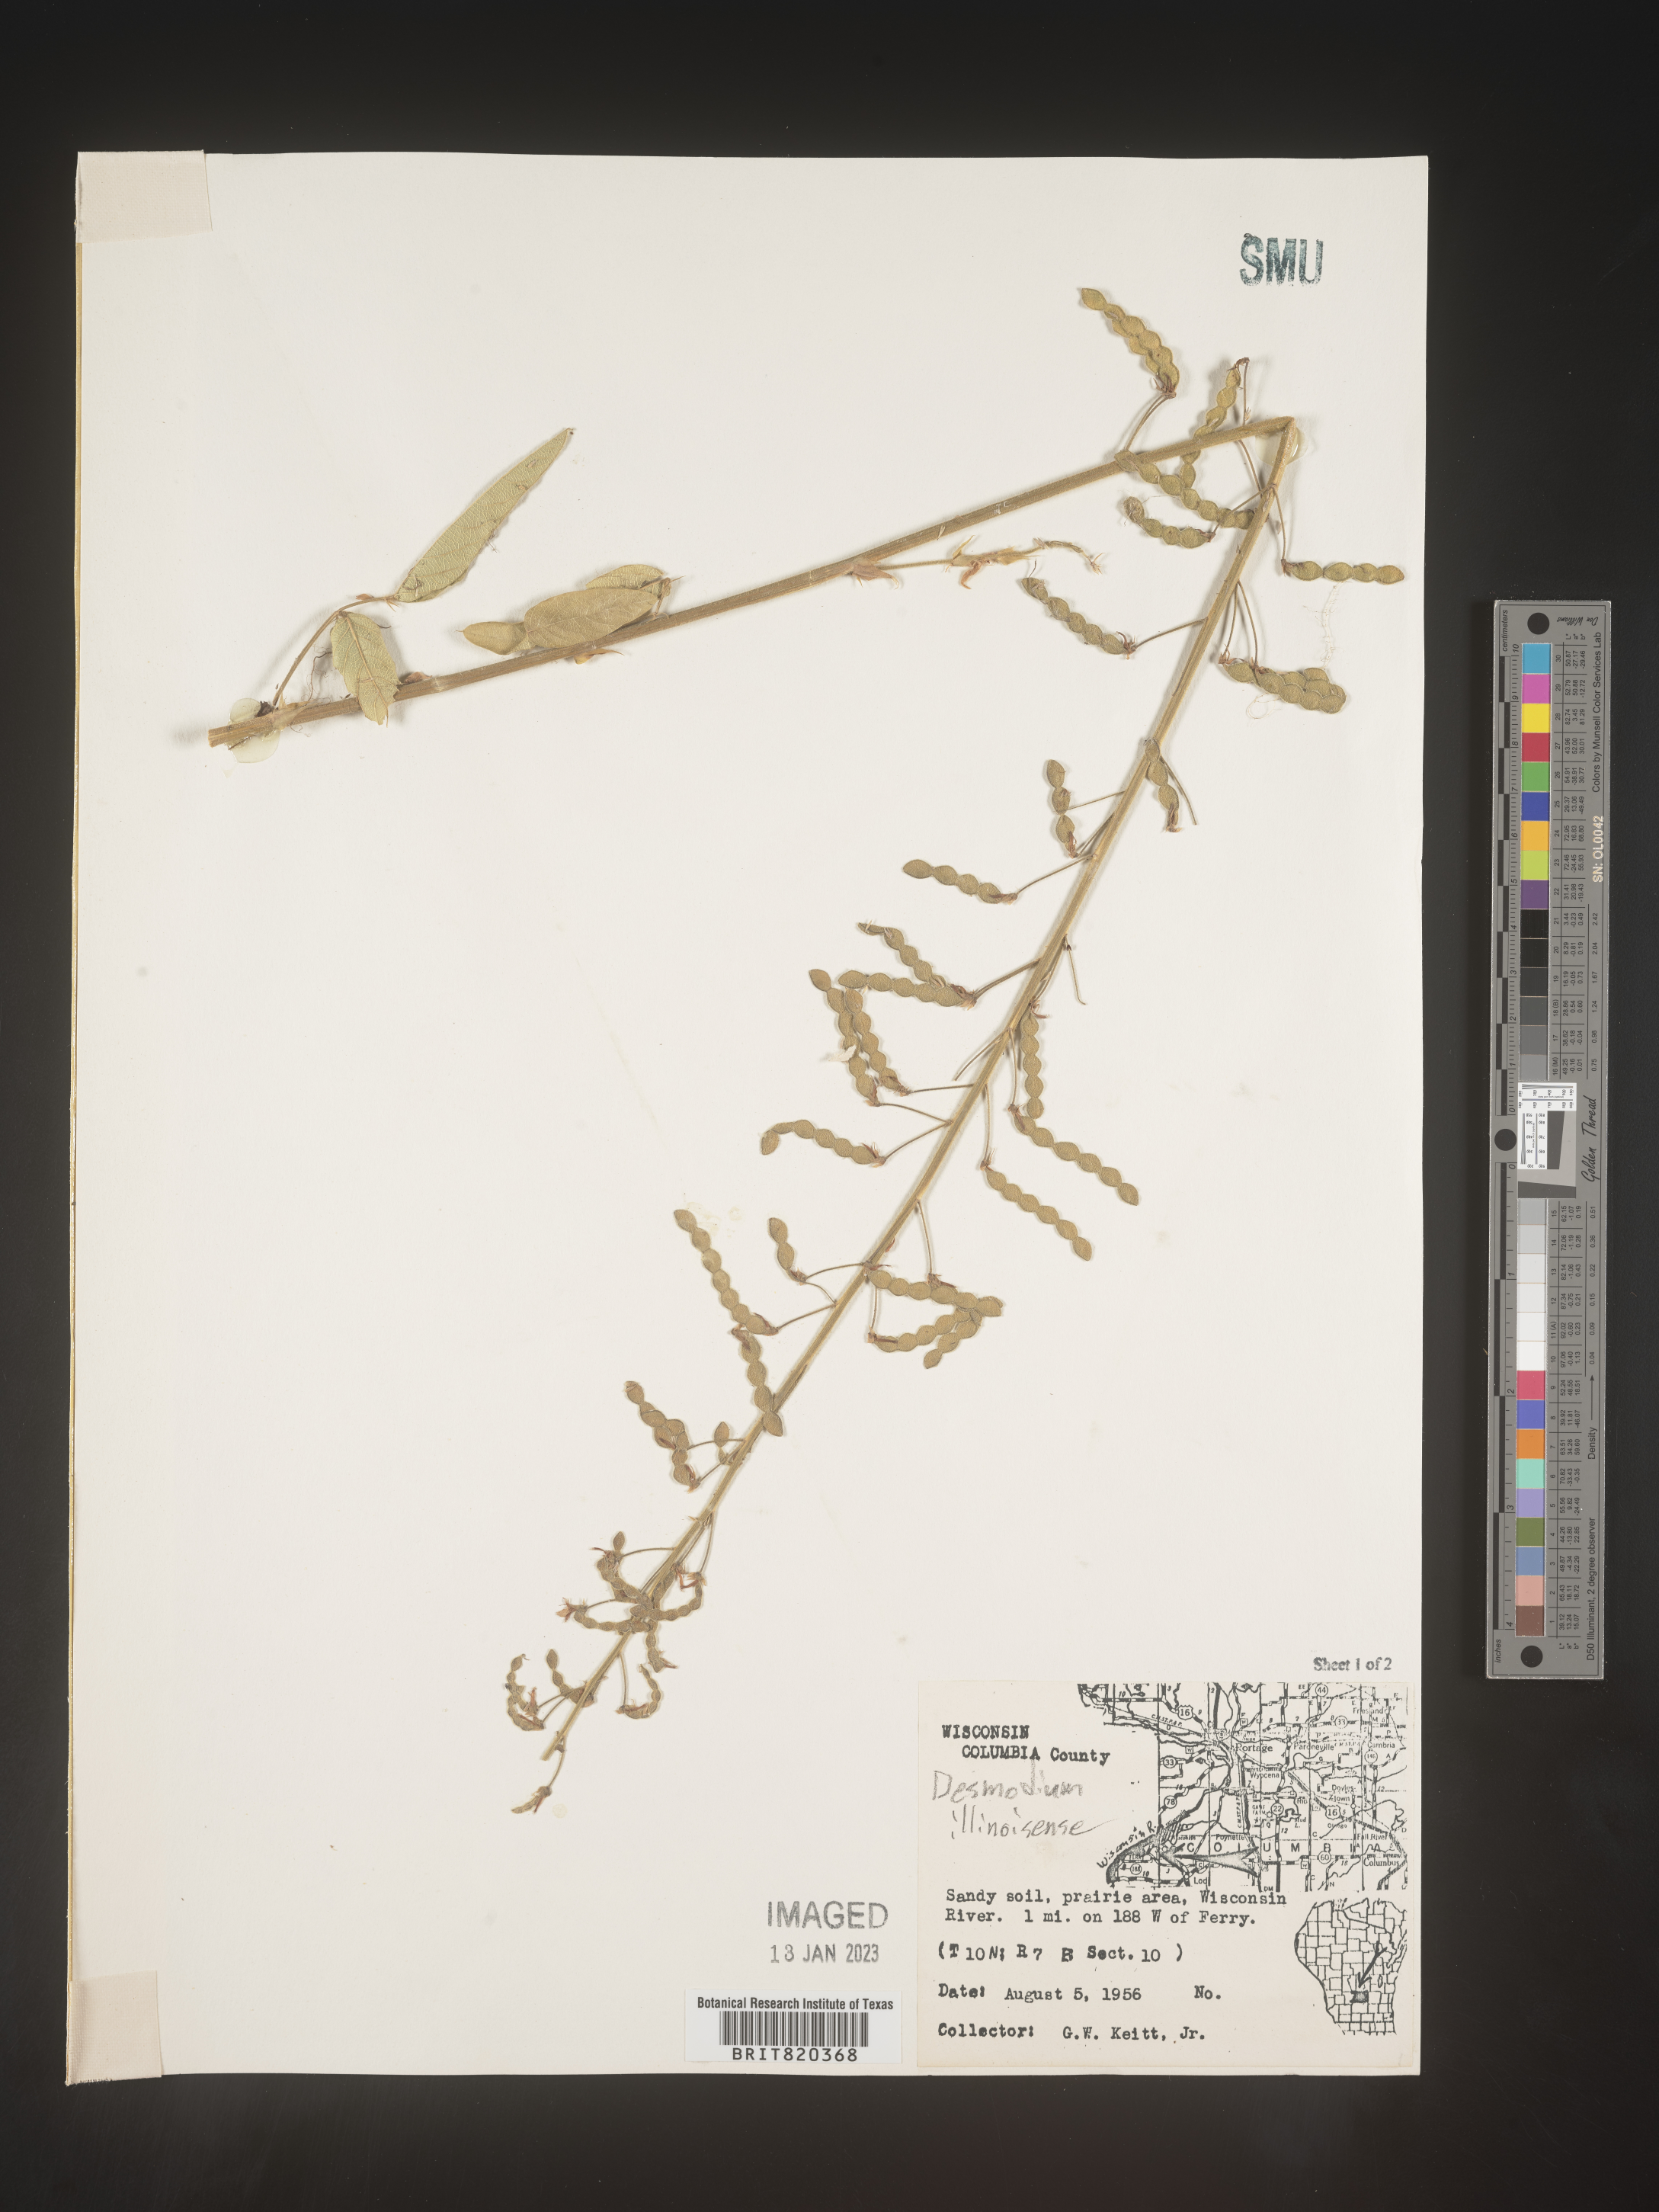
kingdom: Plantae
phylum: Tracheophyta
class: Magnoliopsida
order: Fabales
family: Fabaceae
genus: Desmodium
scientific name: Desmodium illinoense
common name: Illinois tick-clover
